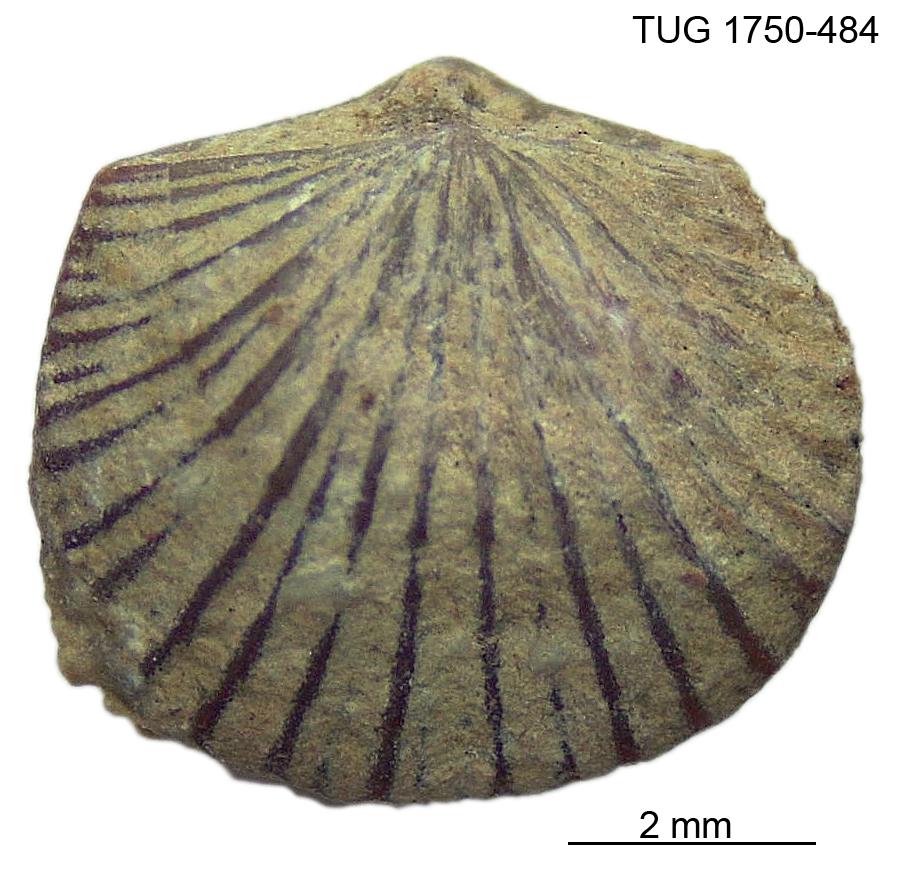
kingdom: Animalia
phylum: Brachiopoda
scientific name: Brachiopoda
